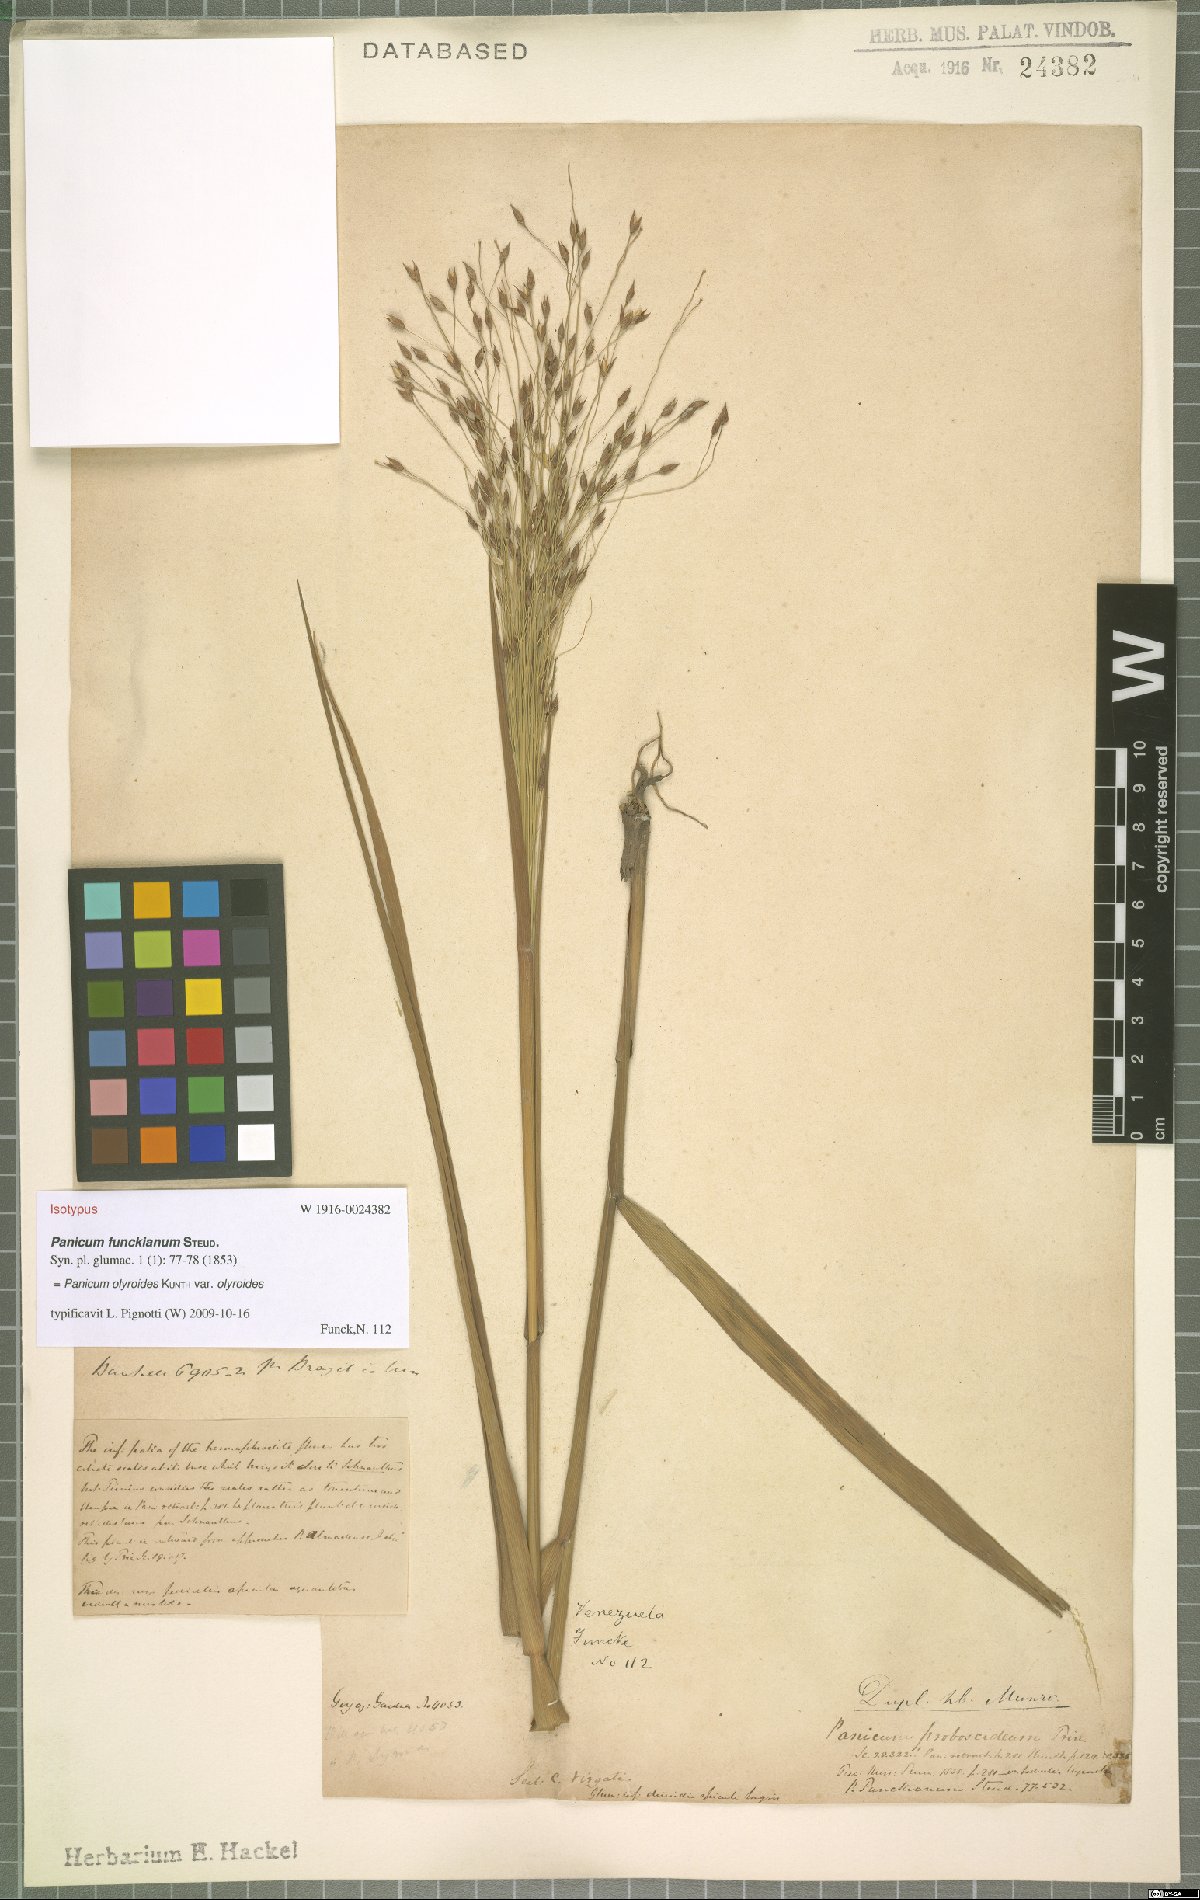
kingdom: Plantae
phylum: Tracheophyta
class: Liliopsida
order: Poales
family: Poaceae
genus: Panicum
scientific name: Panicum olyroides
